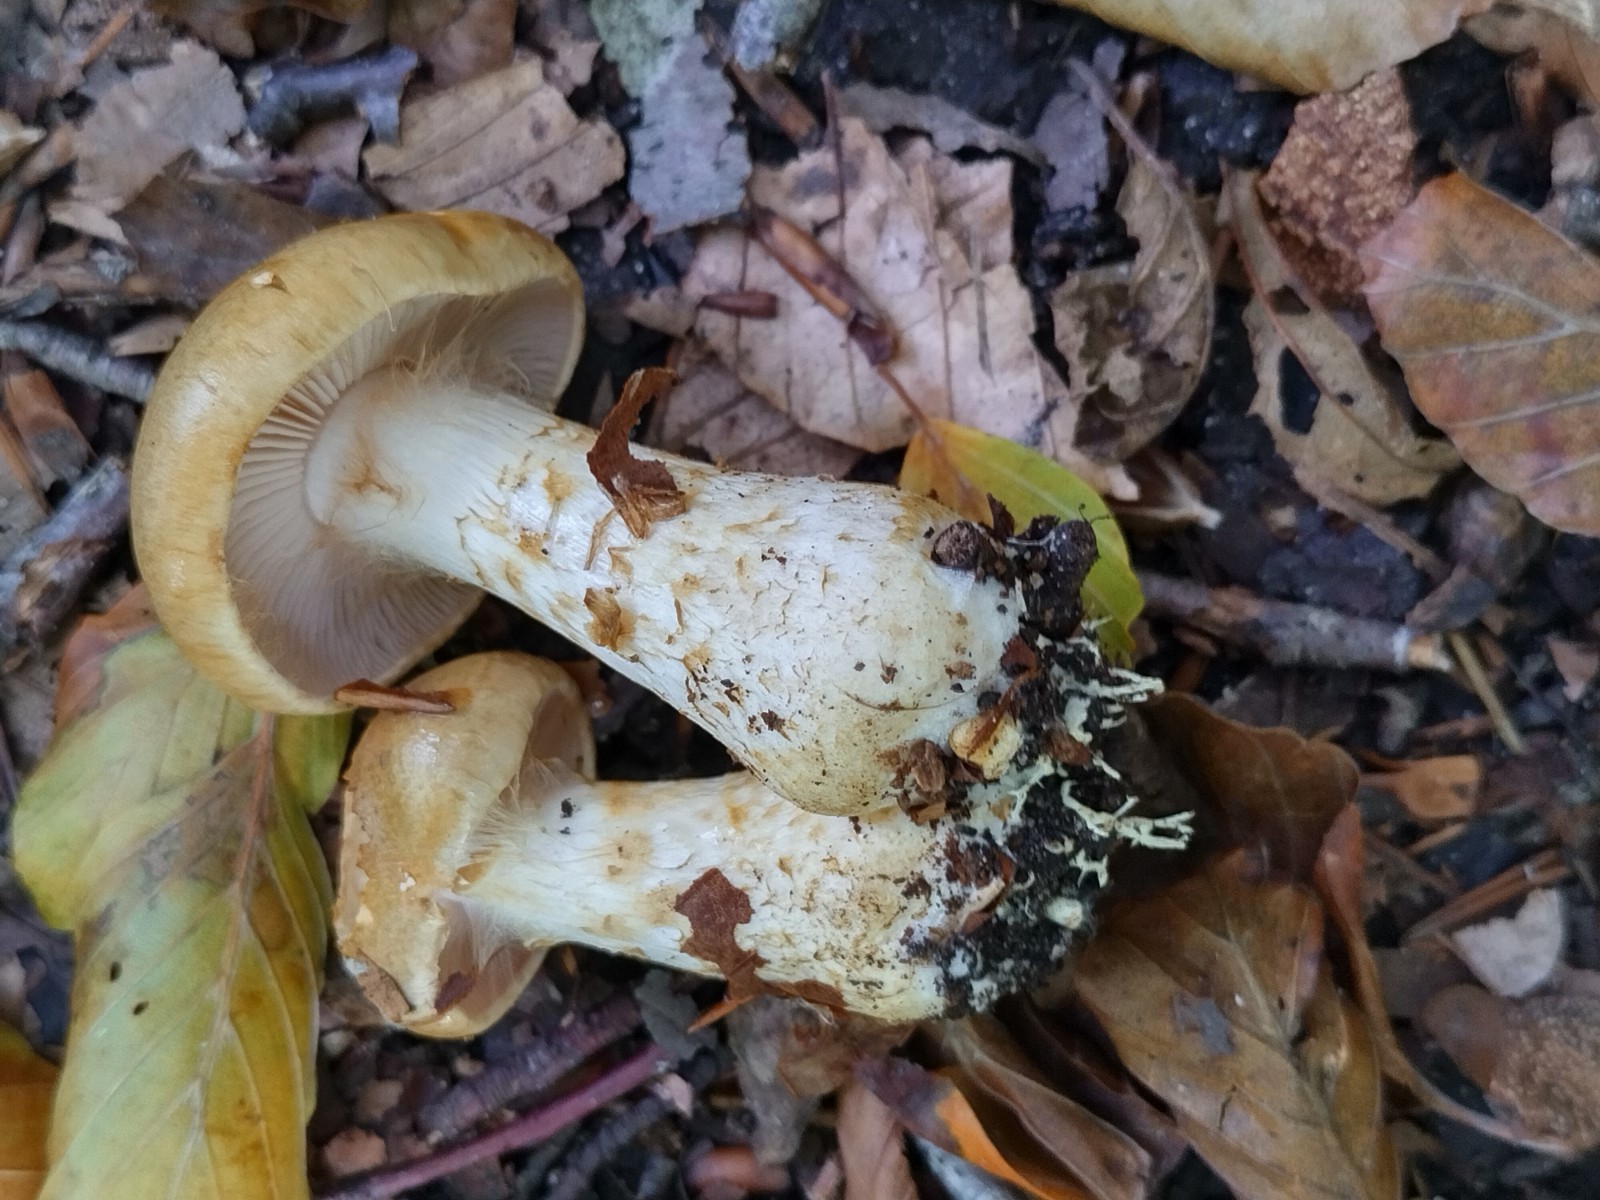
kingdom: Fungi
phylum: Basidiomycota
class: Agaricomycetes
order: Agaricales
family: Cortinariaceae
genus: Phlegmacium
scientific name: Phlegmacium cliduchus
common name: majs-slørhat
